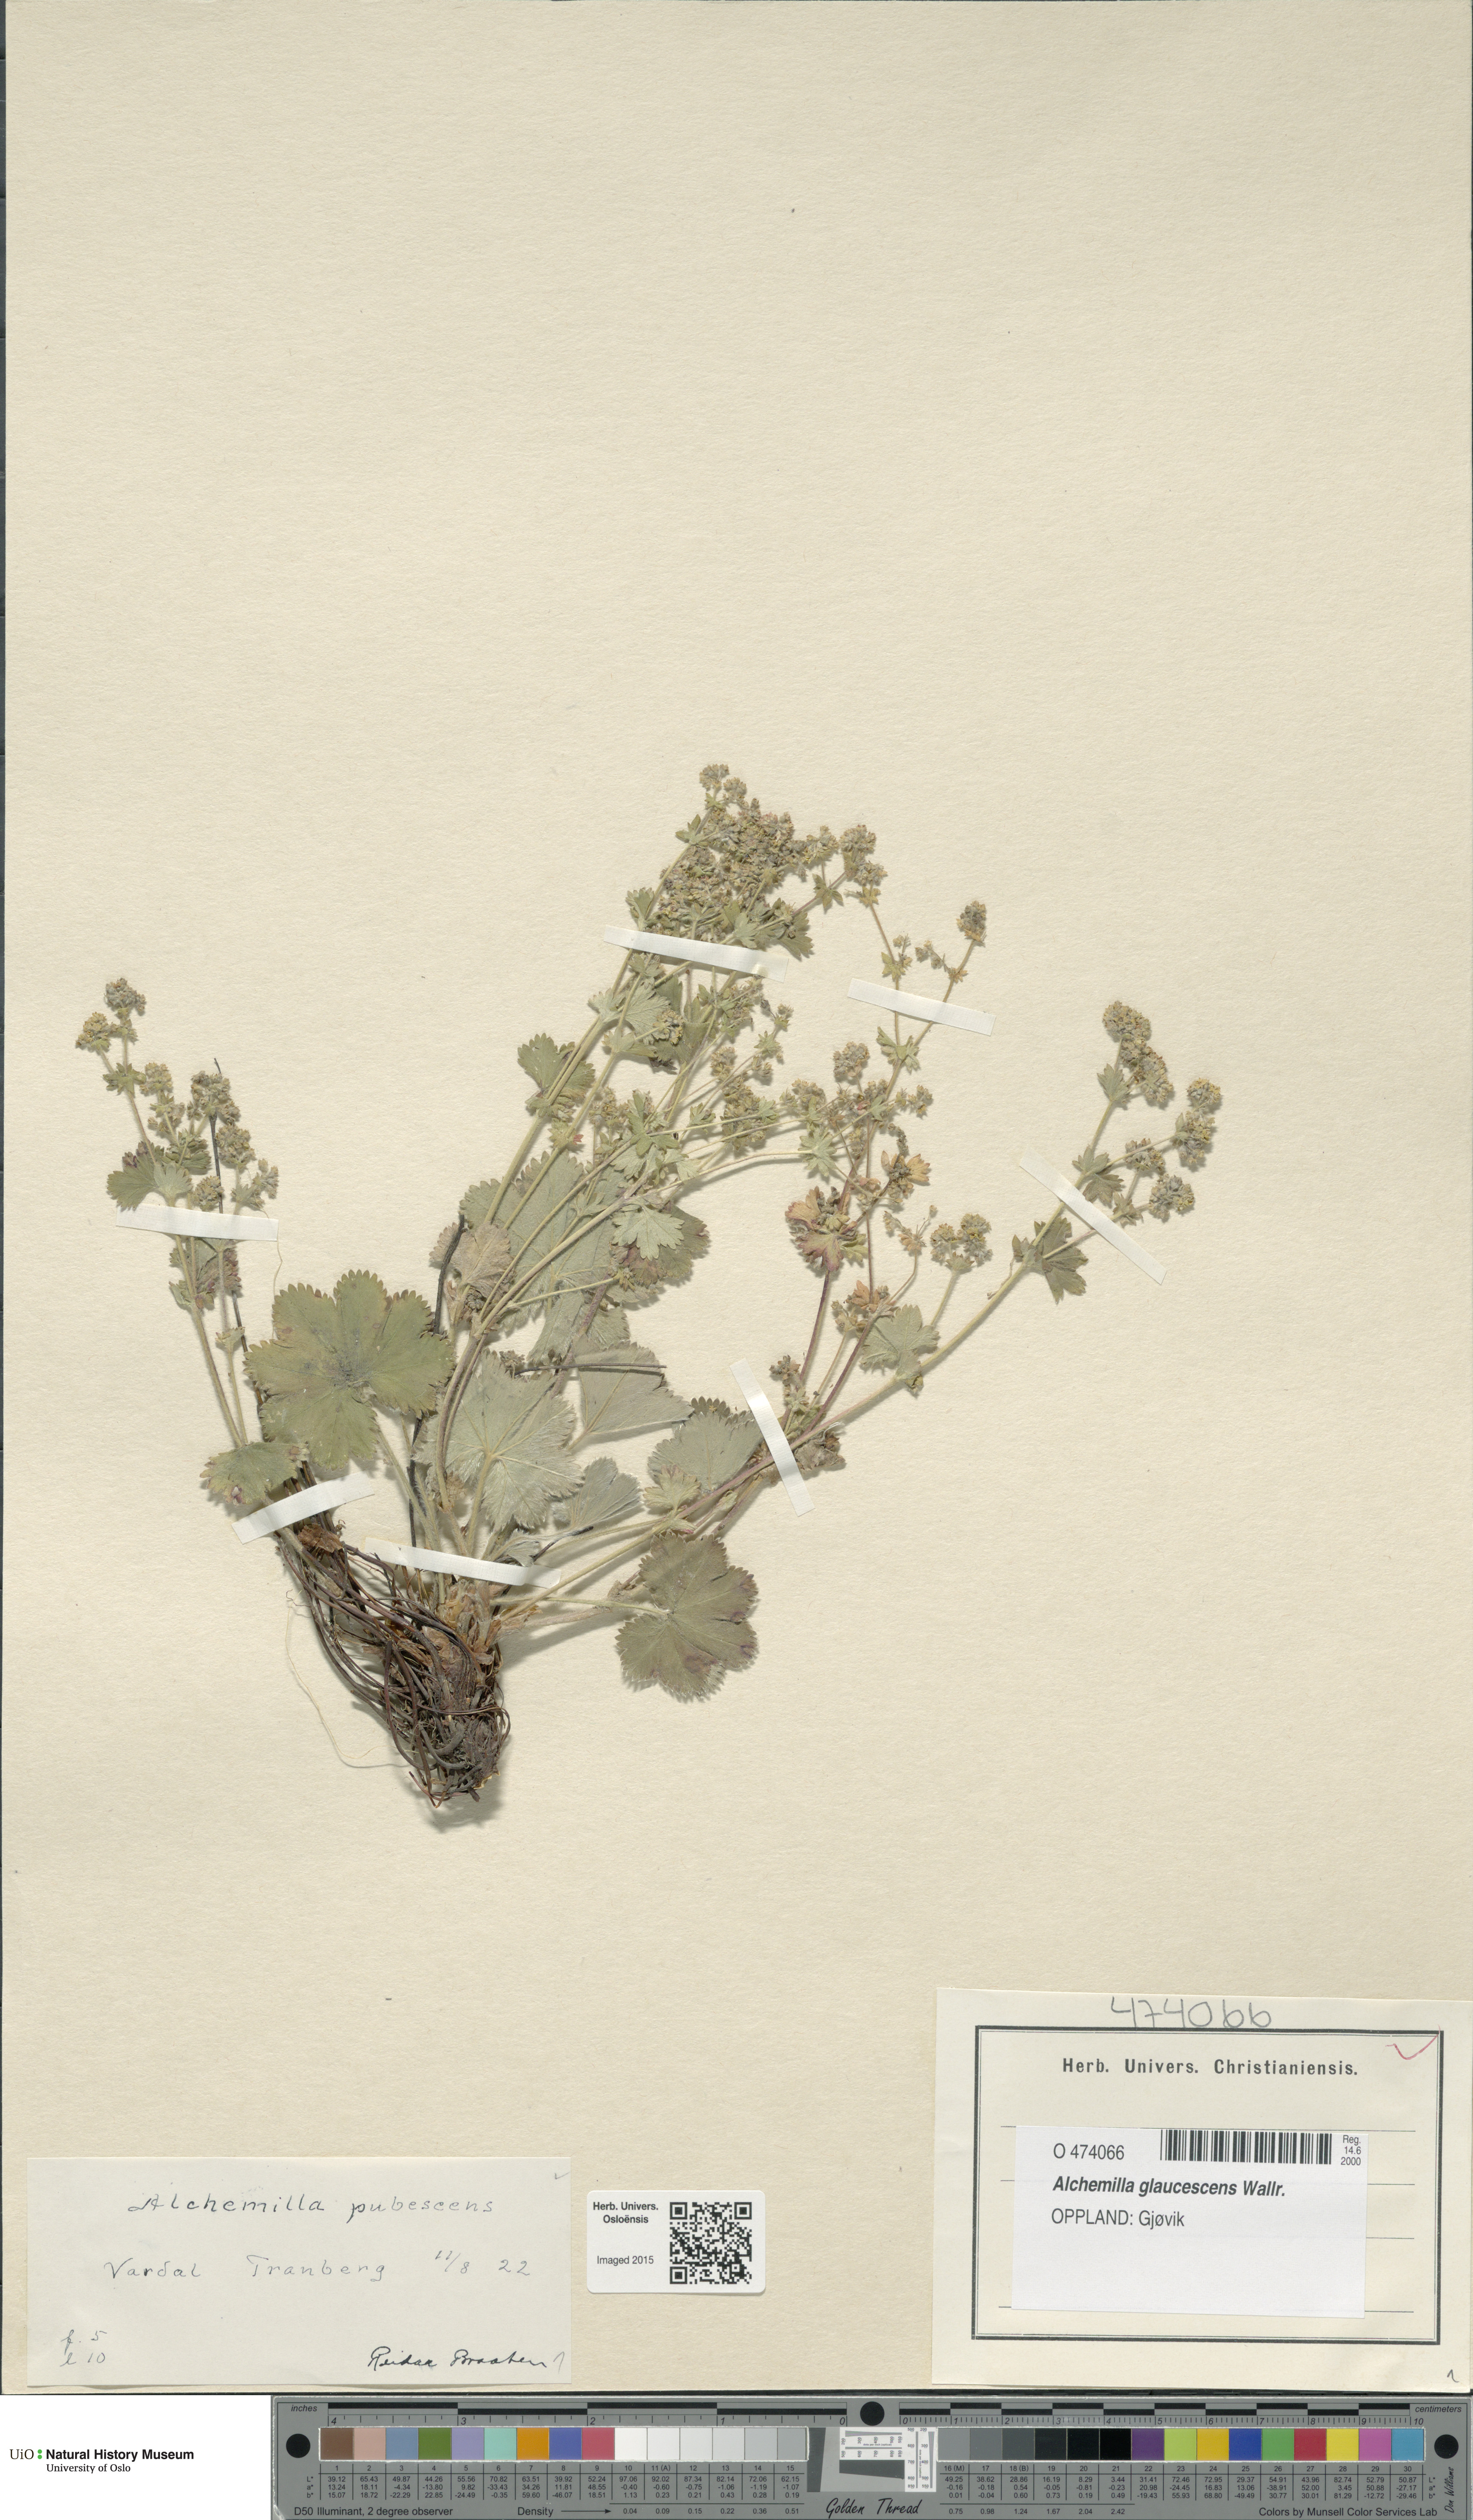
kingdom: Plantae
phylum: Tracheophyta
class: Magnoliopsida
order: Rosales
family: Rosaceae
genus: Alchemilla
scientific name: Alchemilla glaucescens
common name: Silky lady's mantle
